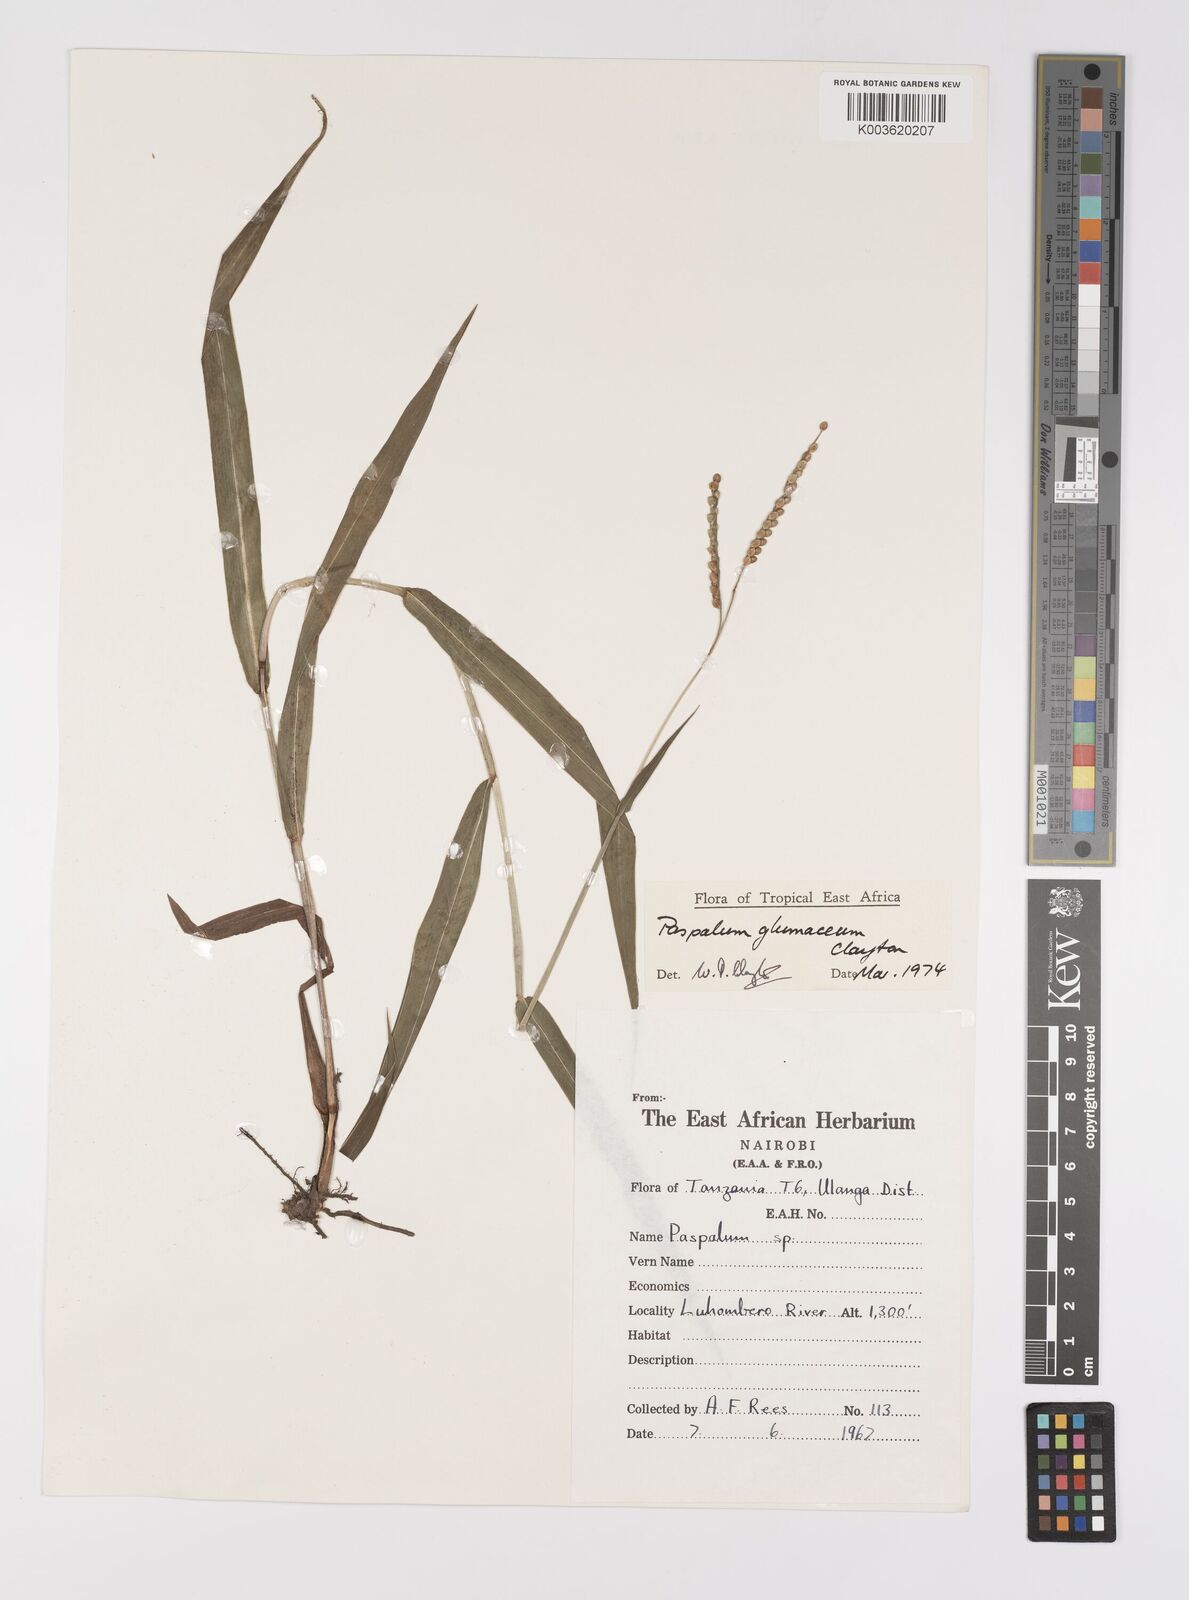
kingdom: Plantae
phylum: Tracheophyta
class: Liliopsida
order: Poales
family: Poaceae
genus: Paspalum
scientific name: Paspalum glumaceum
